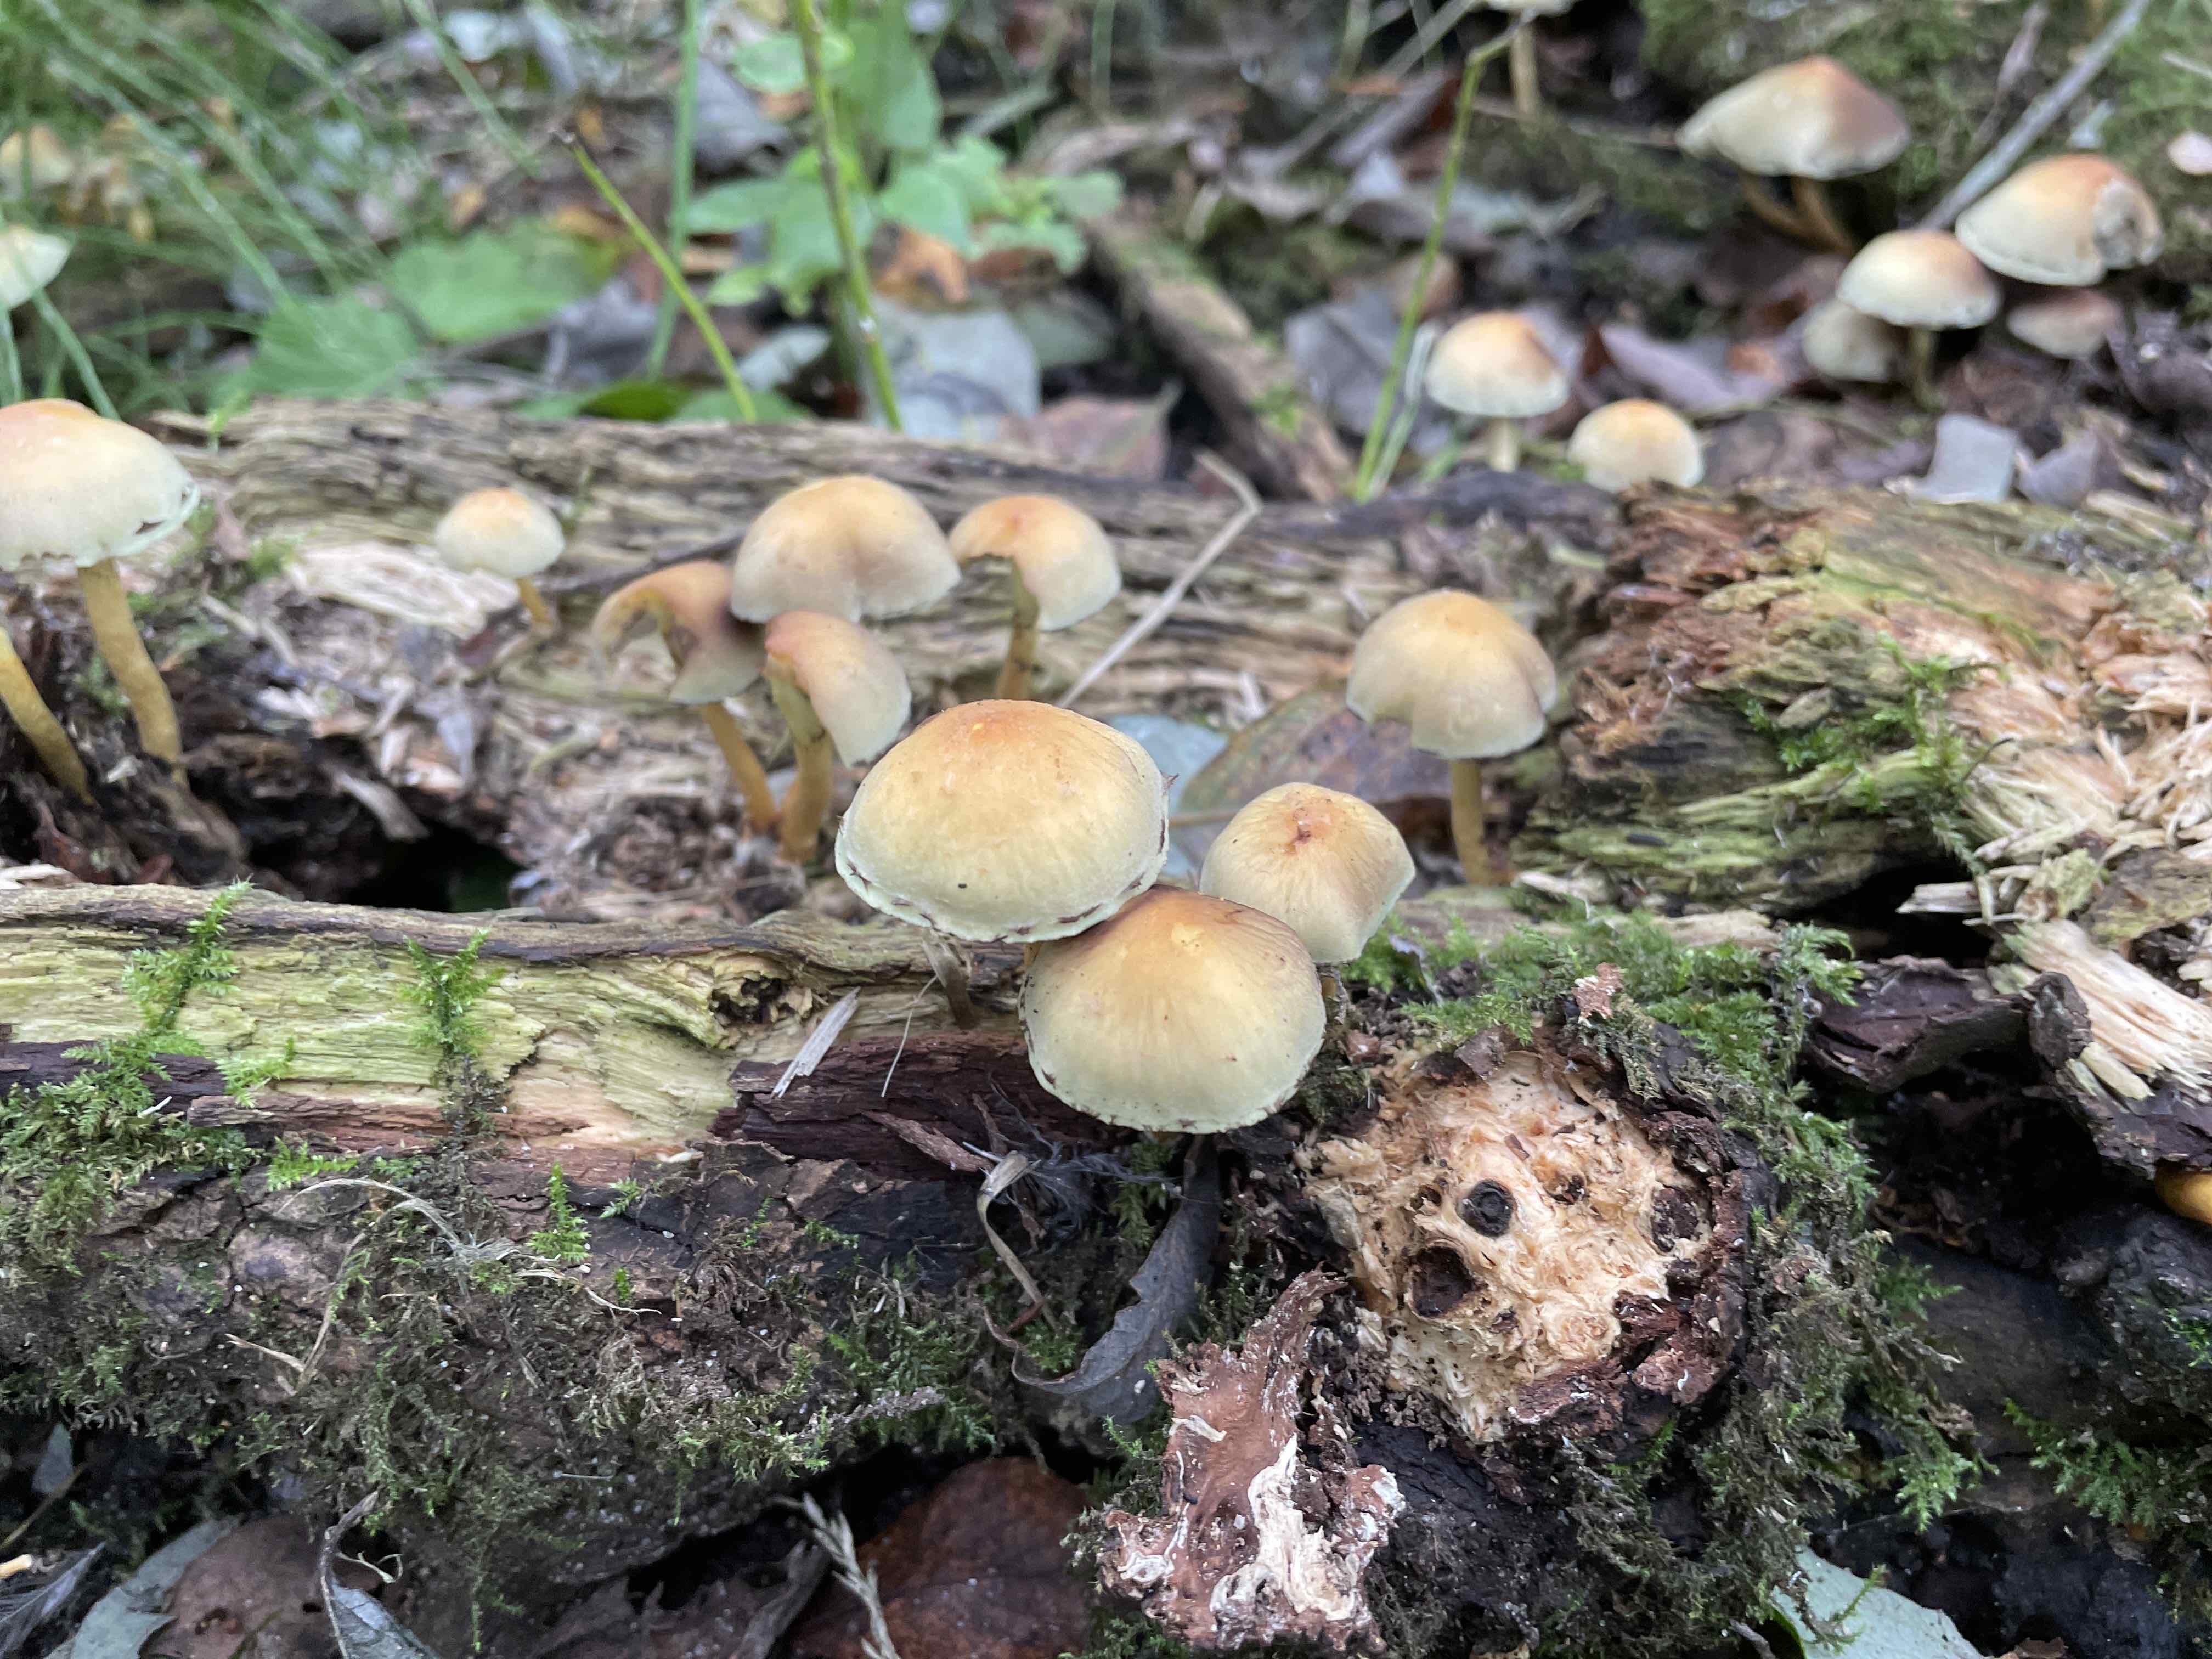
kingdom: Fungi
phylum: Basidiomycota
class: Agaricomycetes
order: Agaricales
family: Strophariaceae
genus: Hypholoma
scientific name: Hypholoma fasciculare
